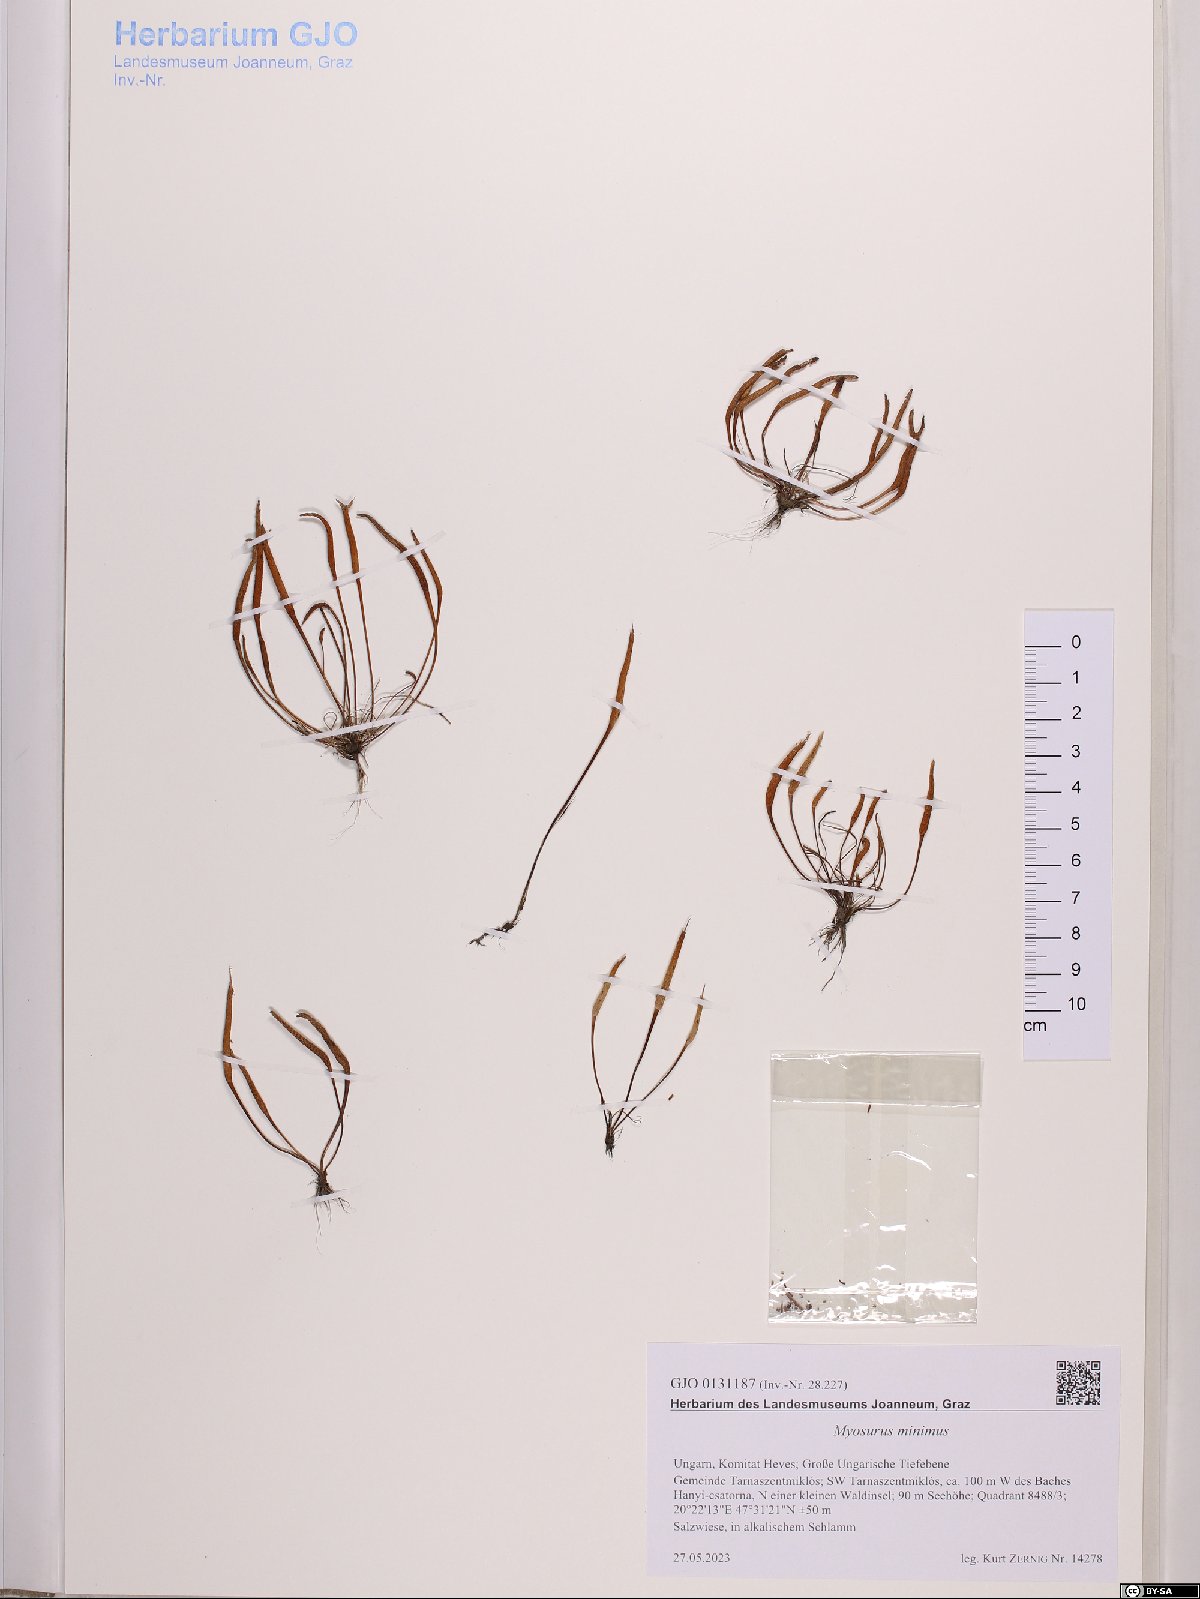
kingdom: Plantae
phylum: Tracheophyta
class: Magnoliopsida
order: Ranunculales
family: Ranunculaceae
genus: Myosurus
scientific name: Myosurus minimus
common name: Mousetail
